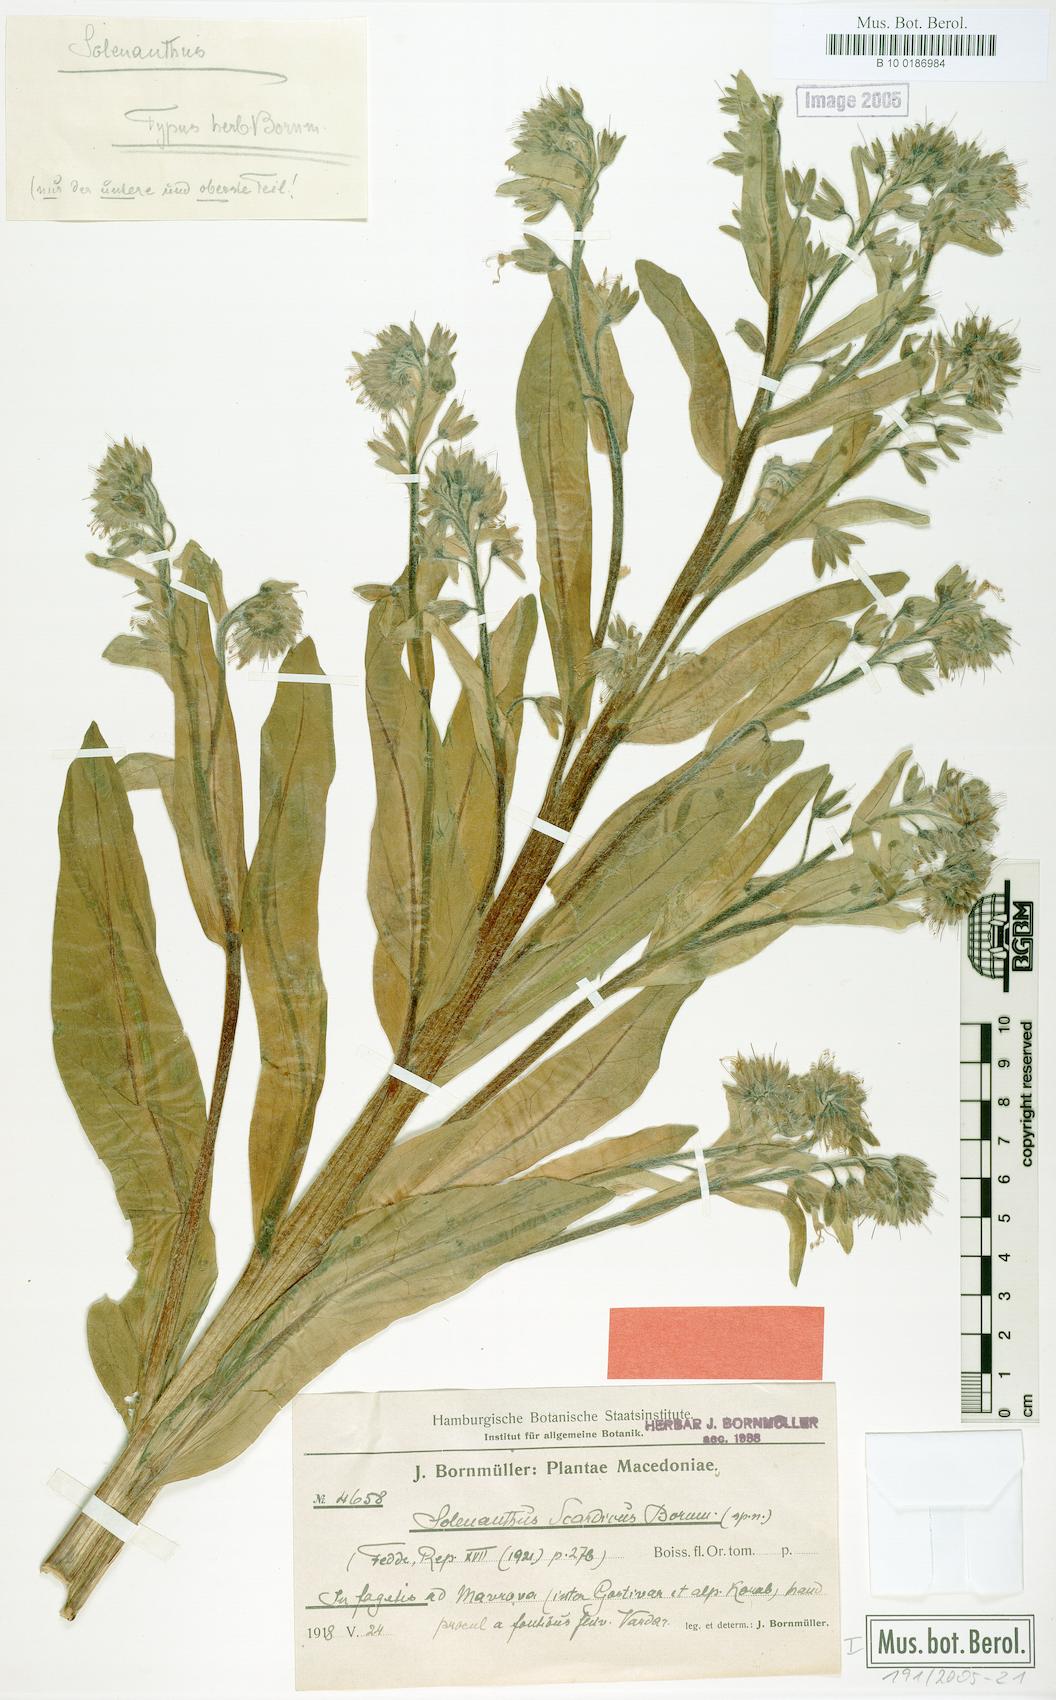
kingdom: Plantae
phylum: Tracheophyta
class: Magnoliopsida
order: Boraginales
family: Boraginaceae
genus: Solenanthus
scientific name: Solenanthus scardicus
